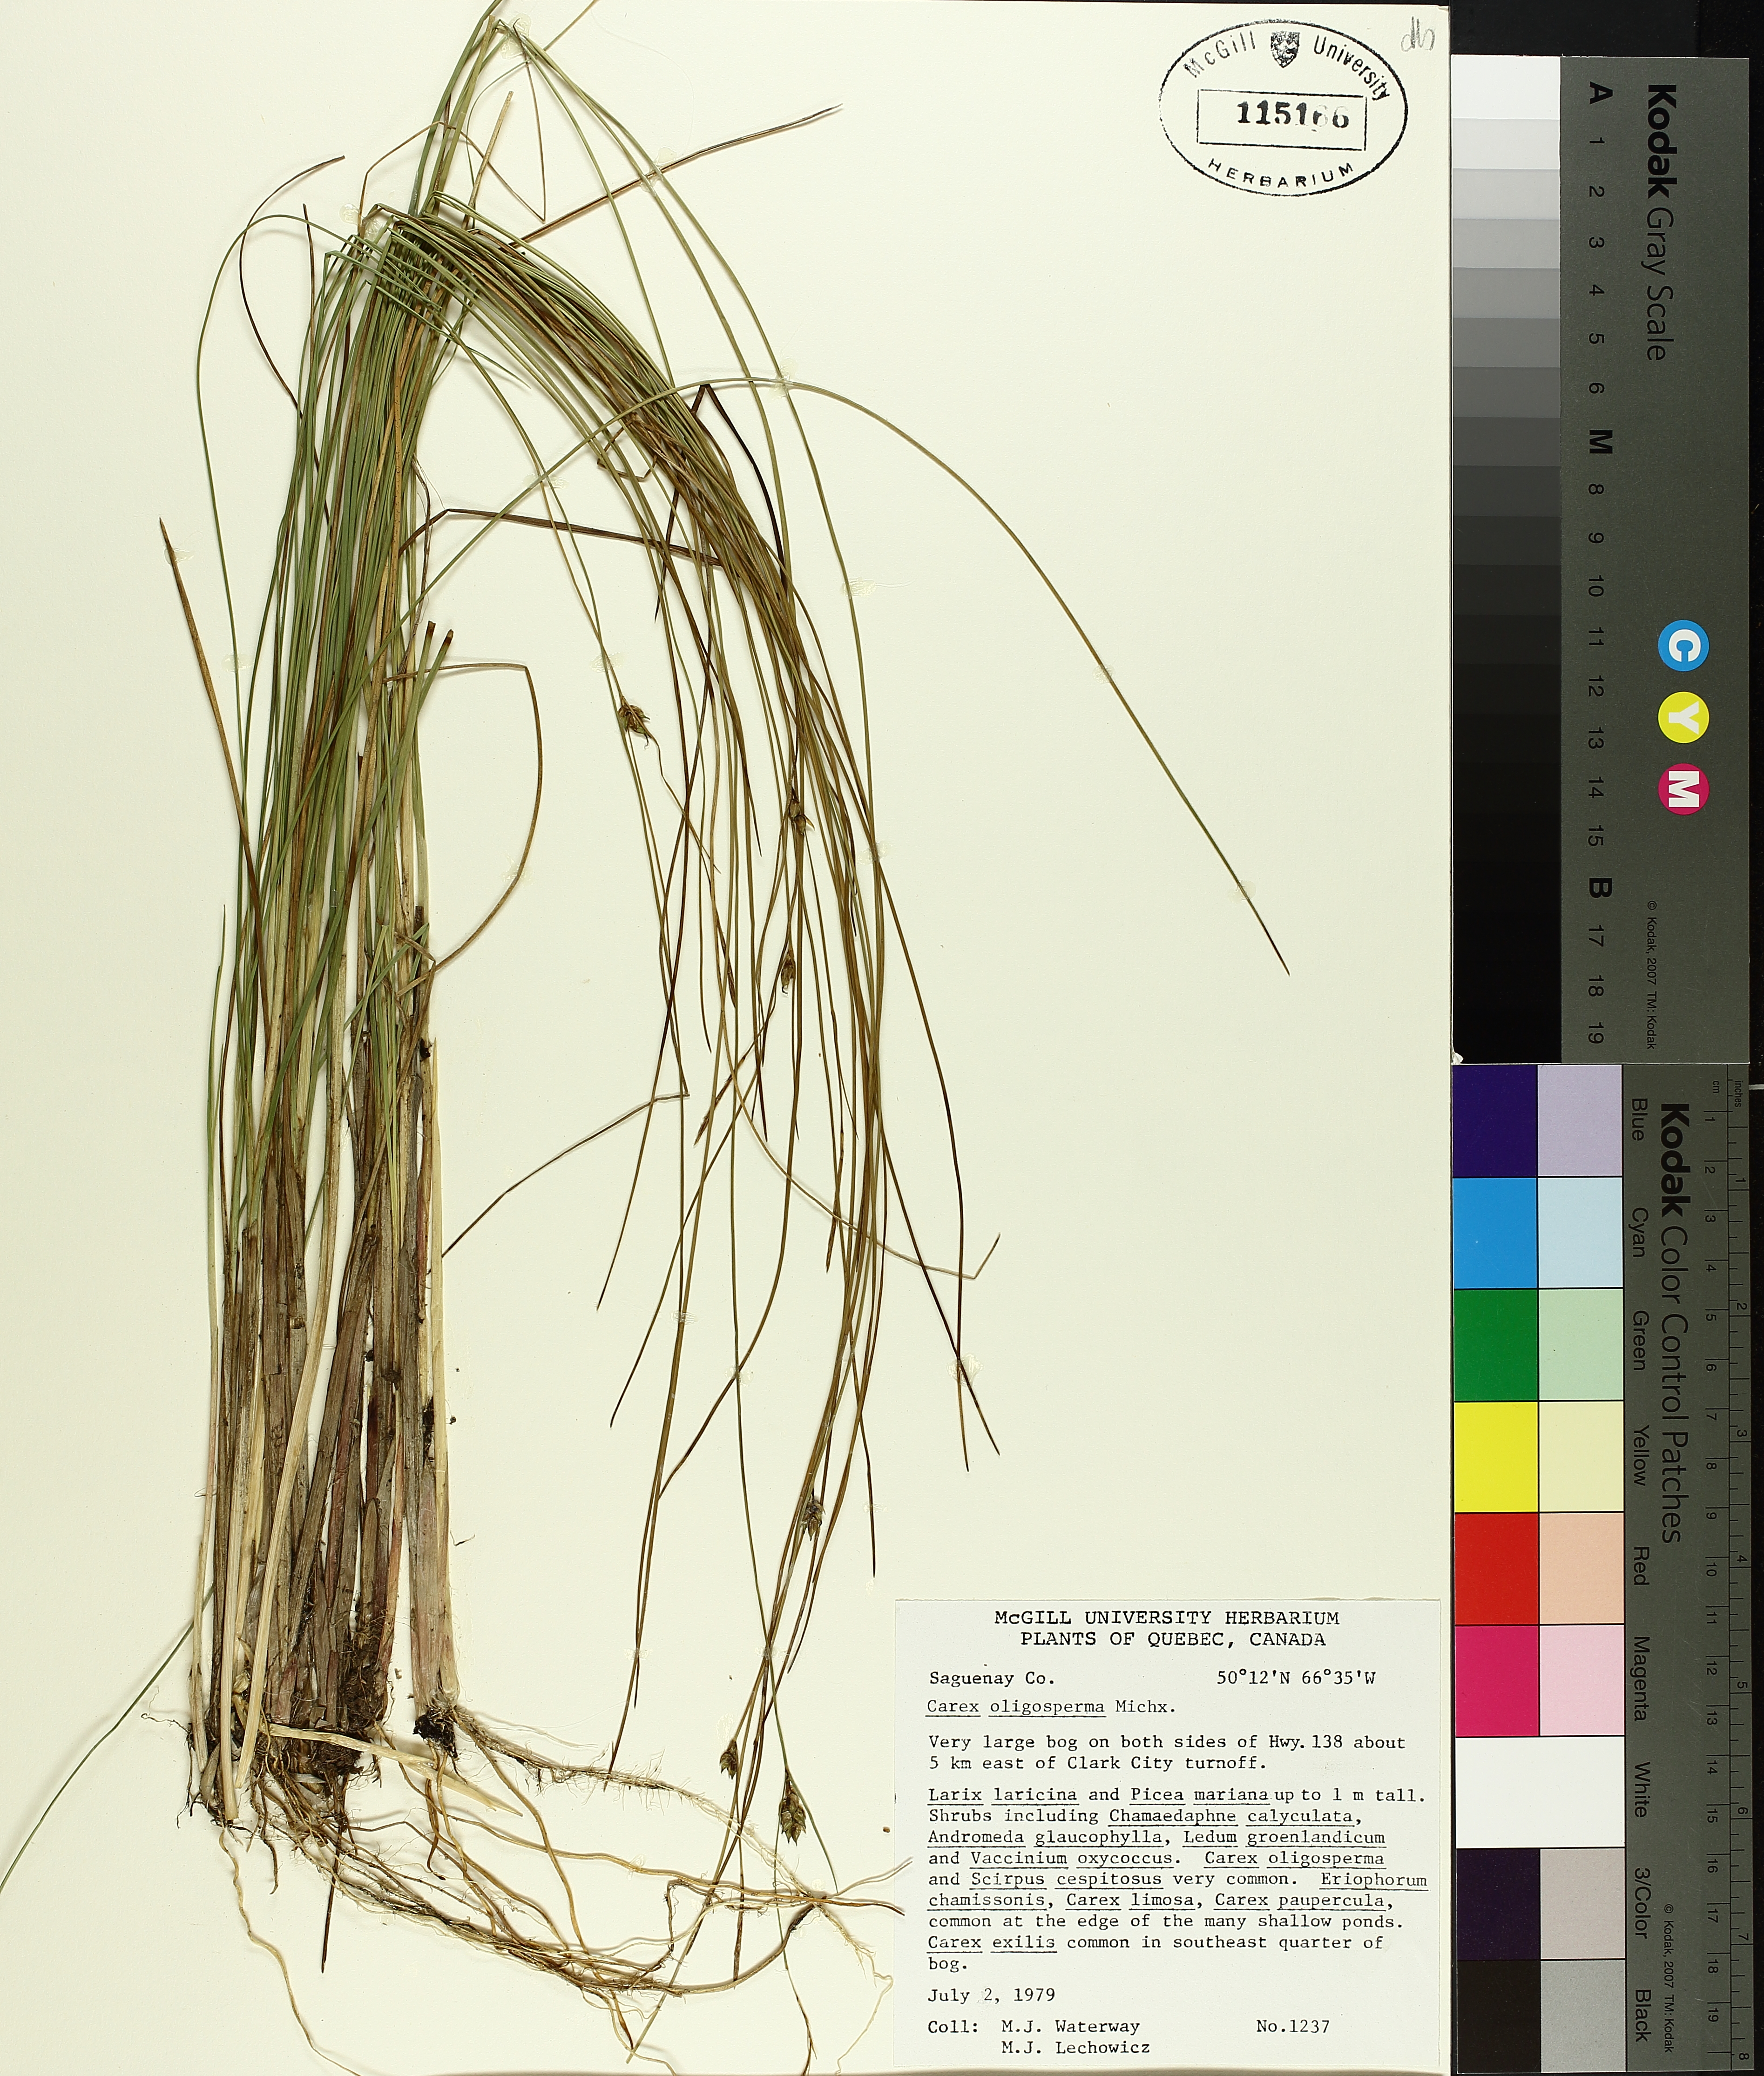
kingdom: Plantae
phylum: Tracheophyta
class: Liliopsida
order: Poales
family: Cyperaceae
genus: Carex
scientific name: Carex oligosperma
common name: Few-seed sedge
